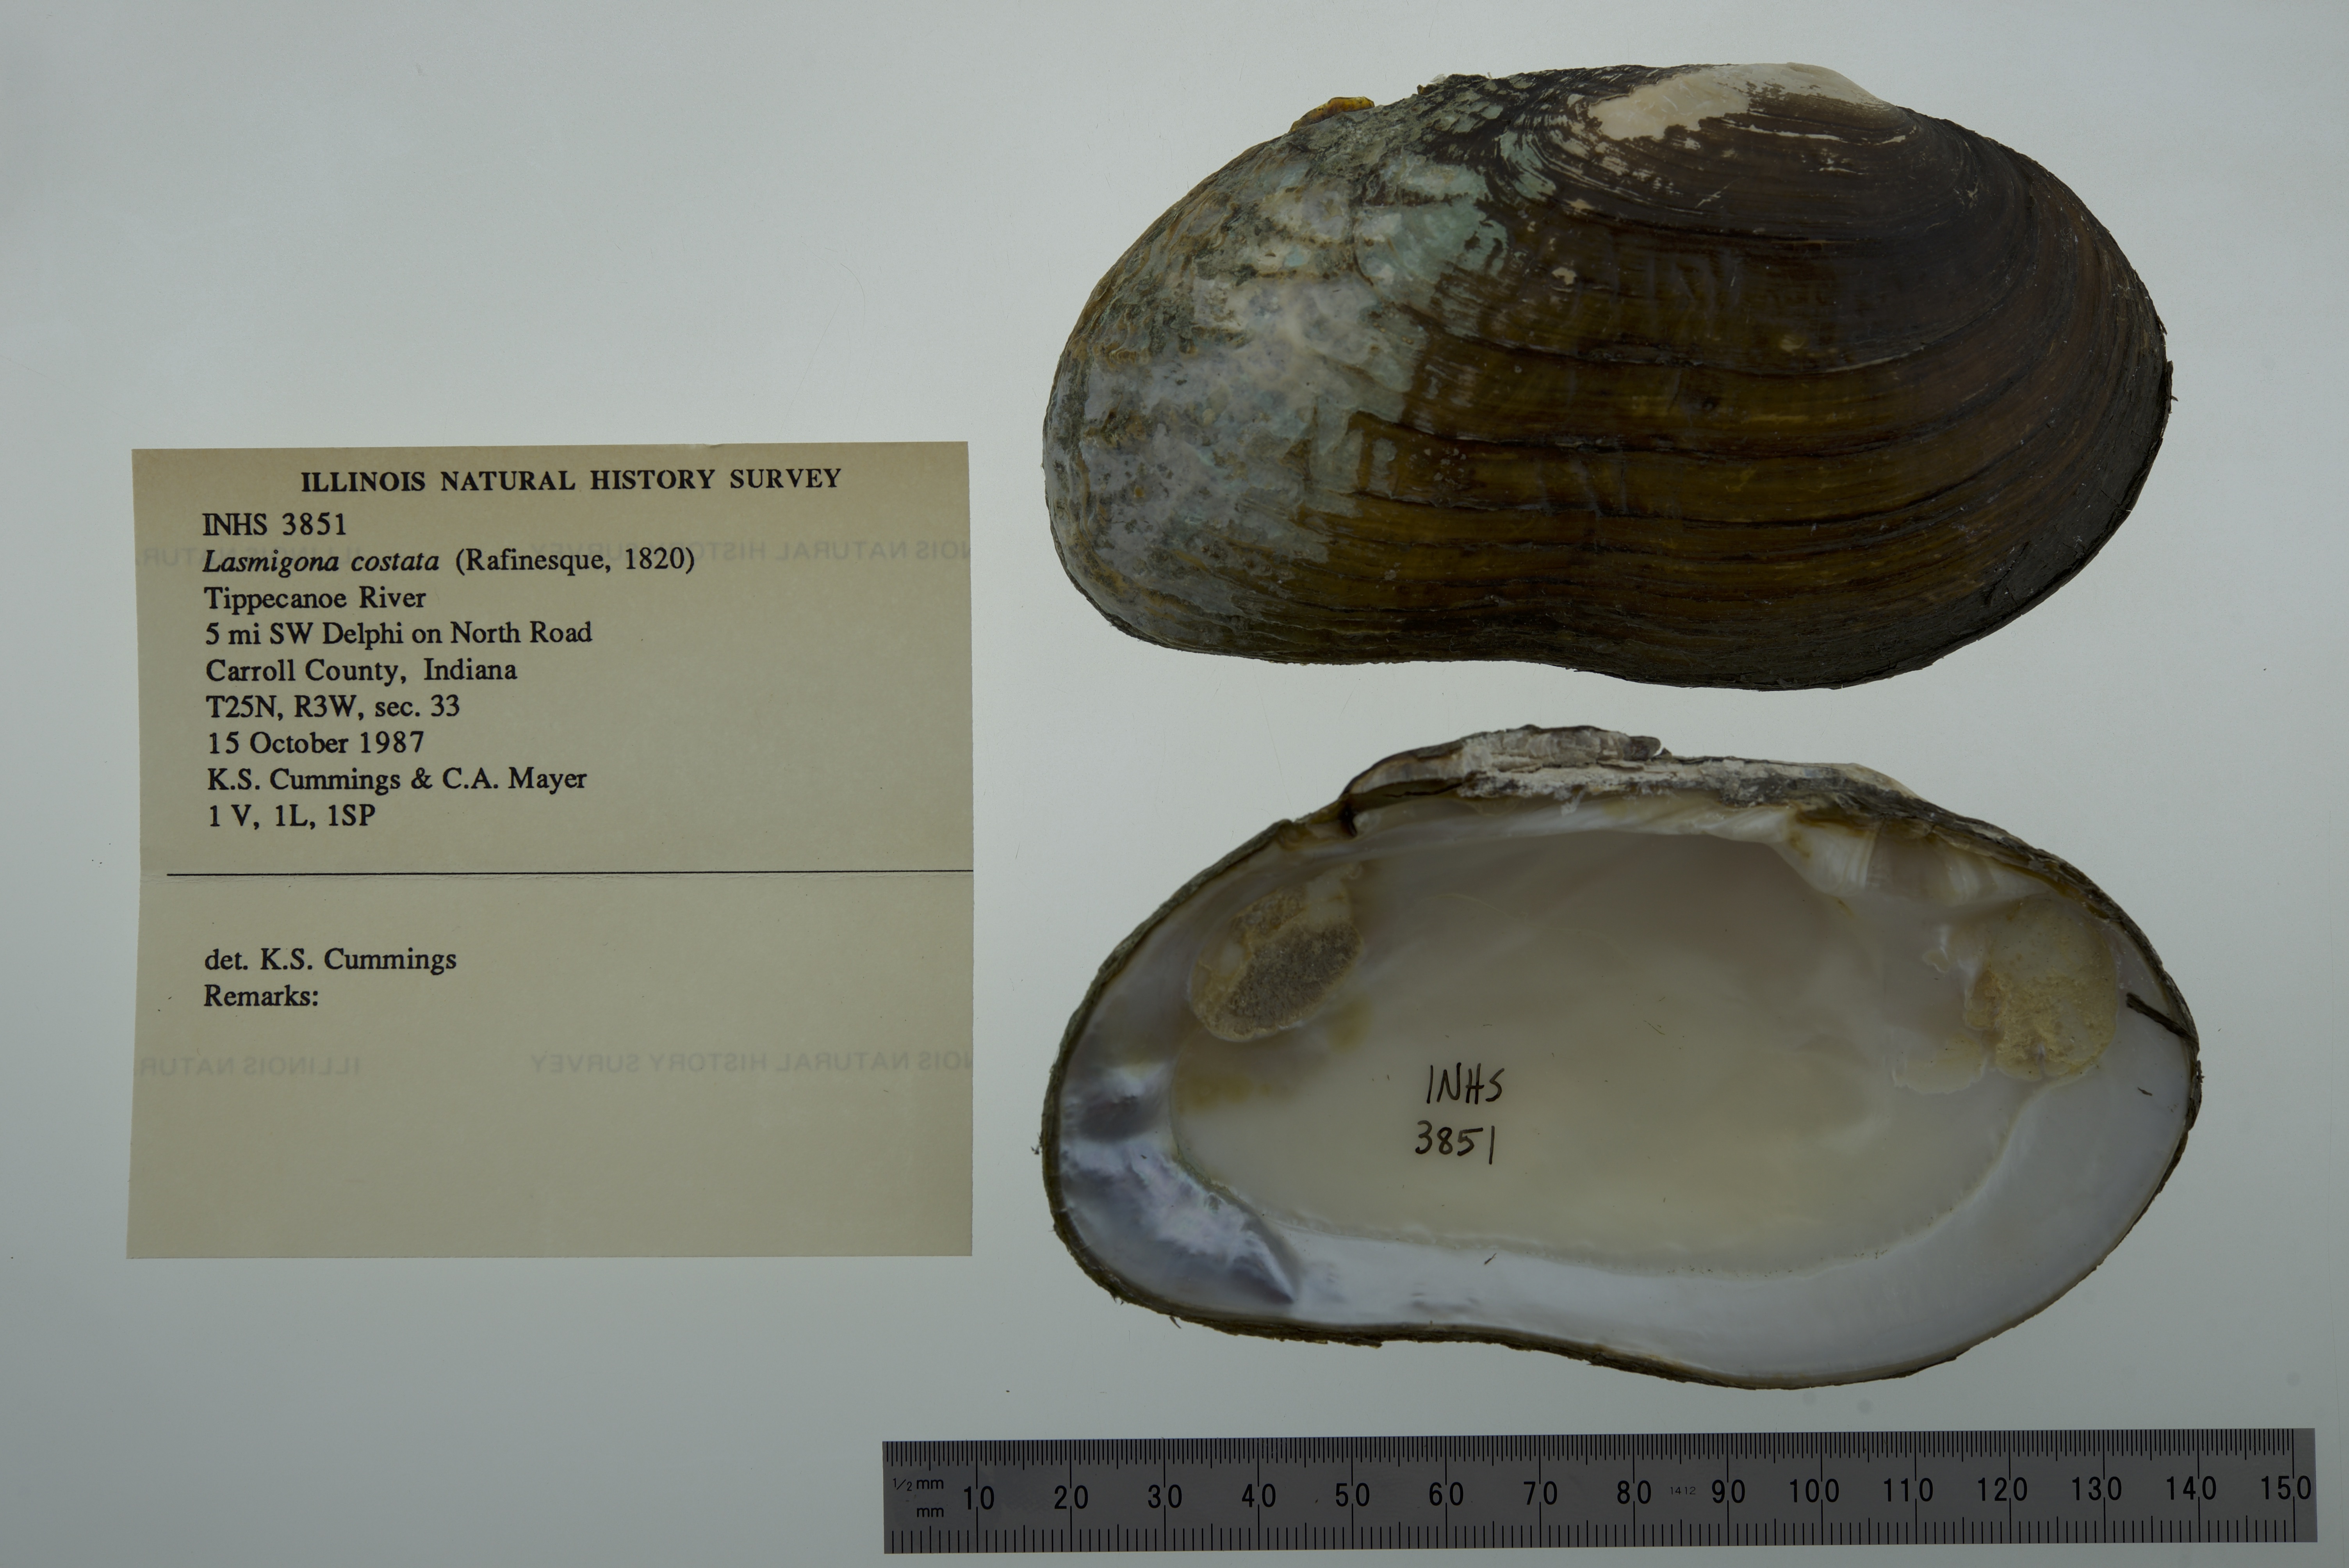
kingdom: Animalia
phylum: Mollusca
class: Bivalvia
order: Unionida
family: Unionidae
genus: Lasmigona
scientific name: Lasmigona costata
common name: Flutedshell
